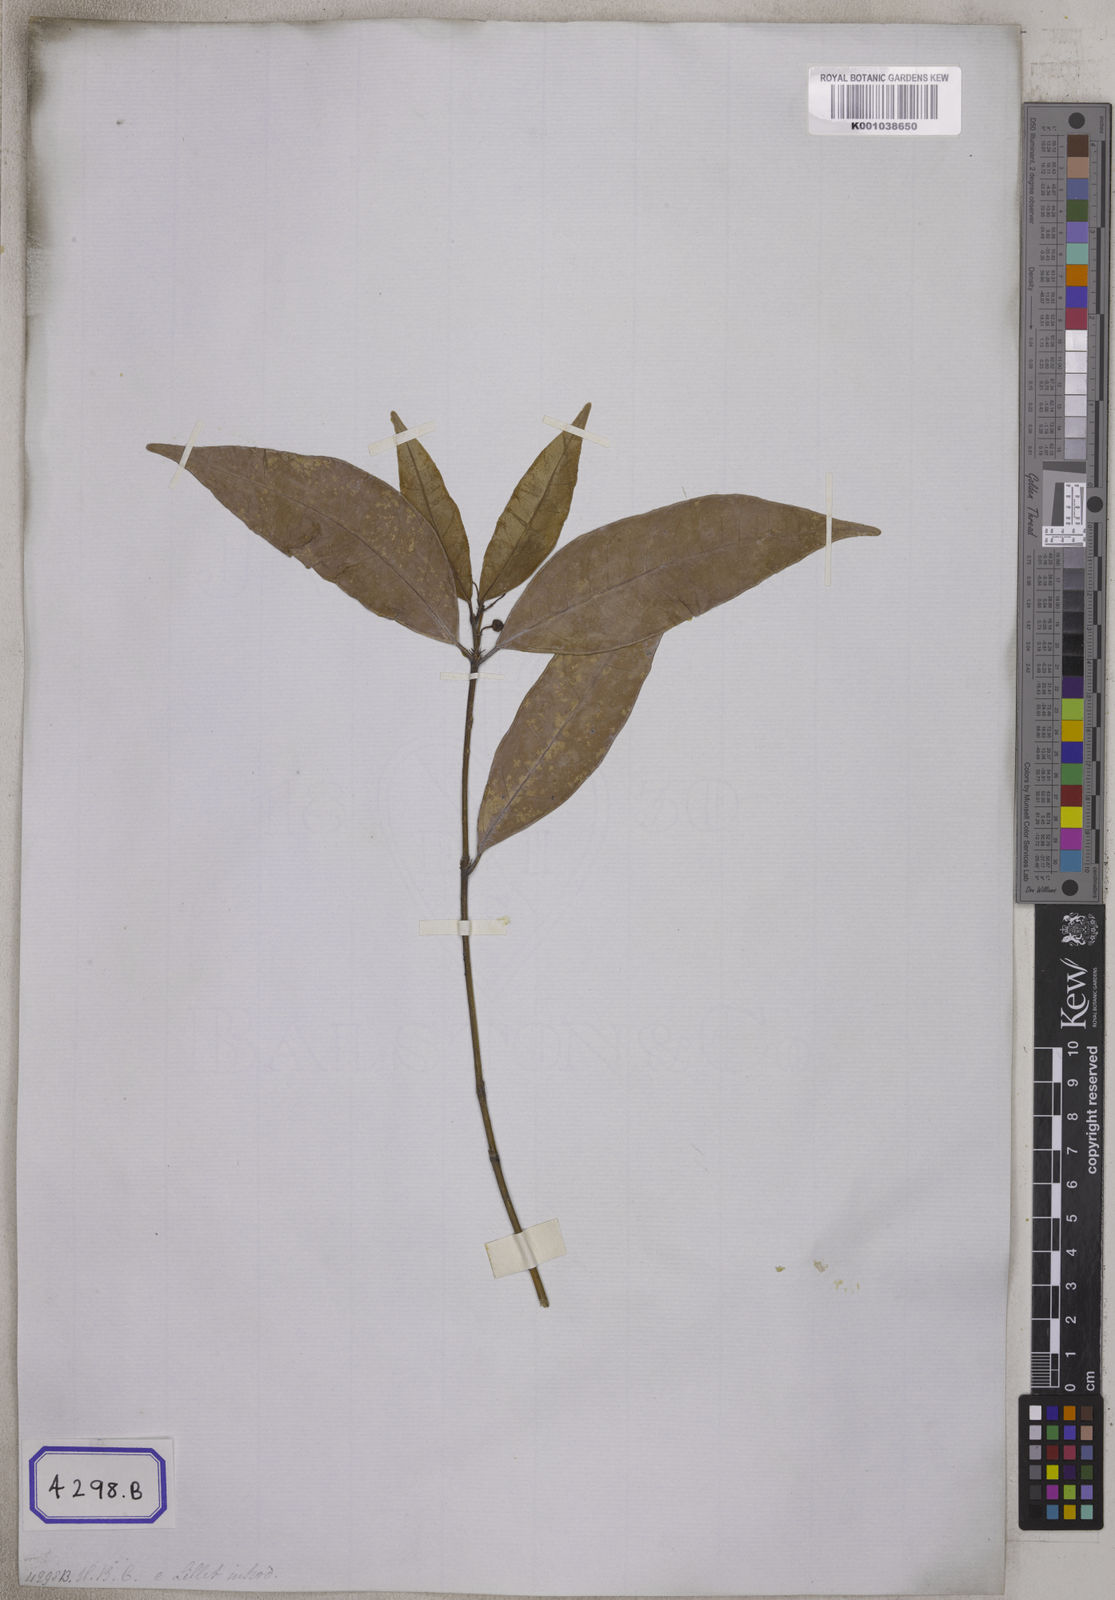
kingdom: Plantae
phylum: Tracheophyta
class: Magnoliopsida
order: Celastrales
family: Celastraceae
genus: Euonymus
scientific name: Euonymus
